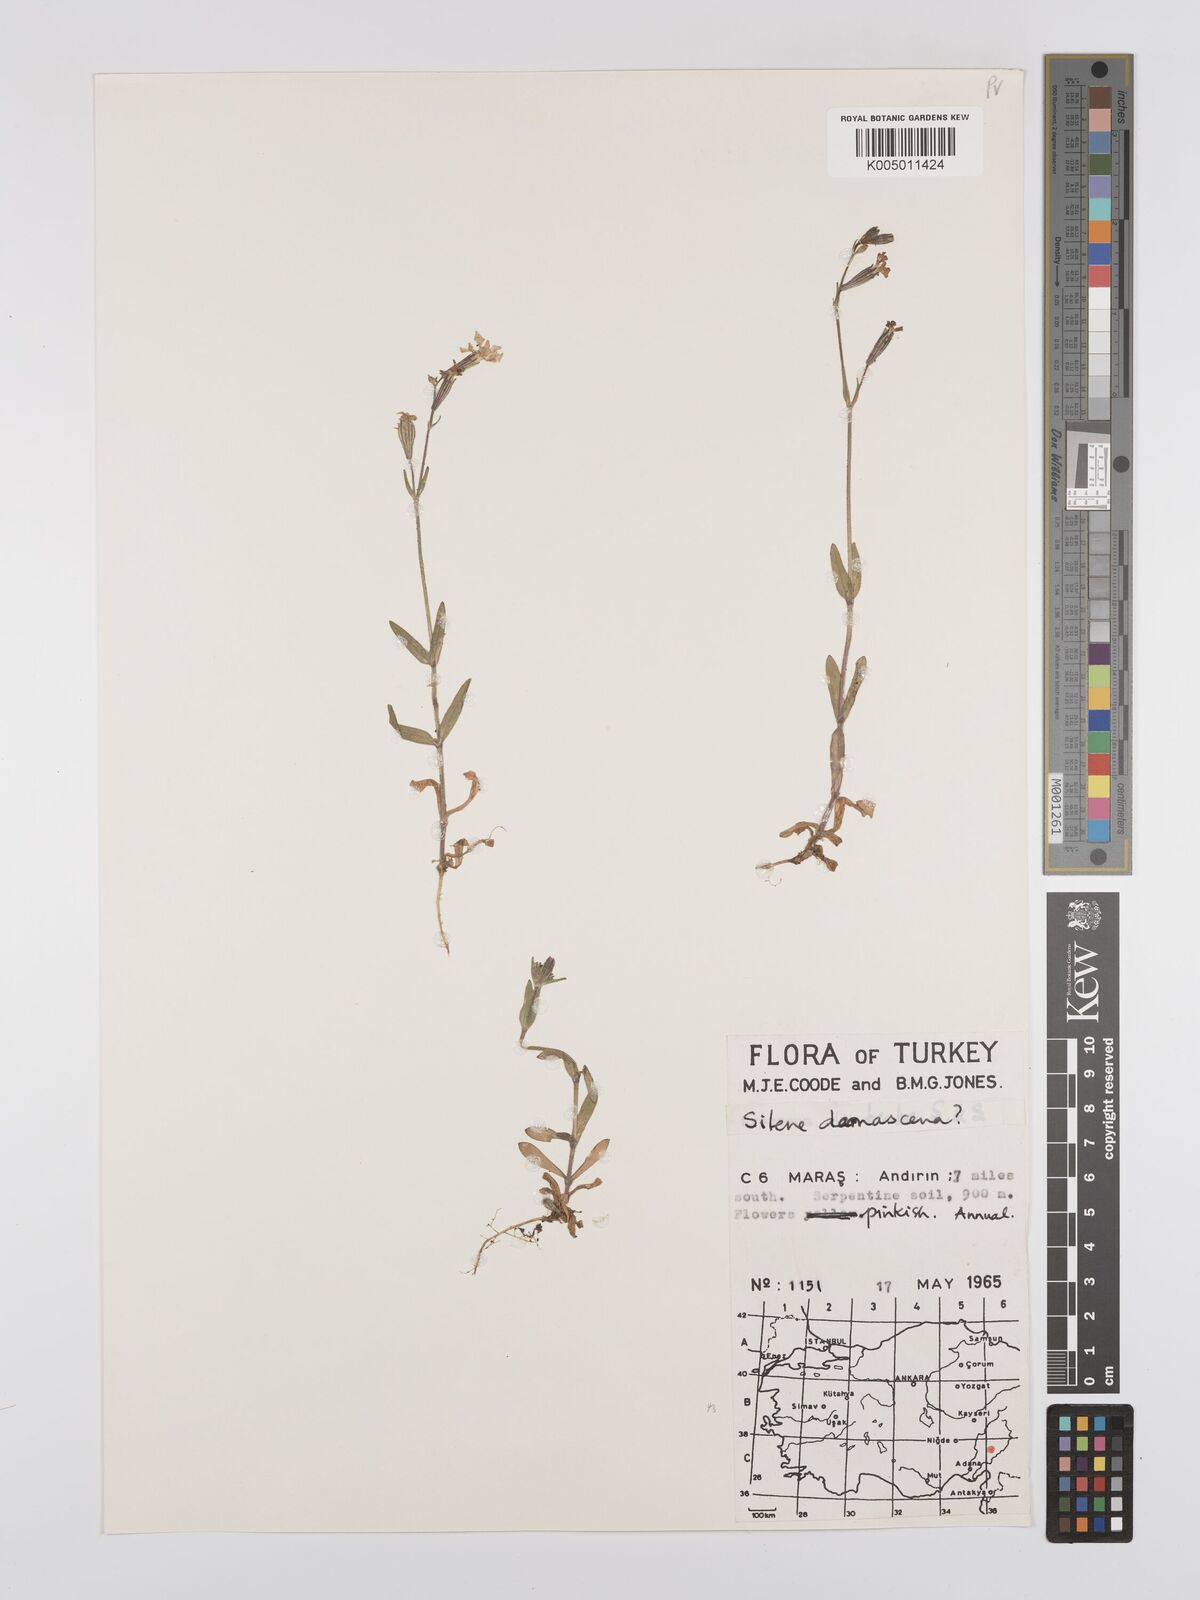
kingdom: Plantae
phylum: Tracheophyta
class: Magnoliopsida
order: Caryophyllales
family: Caryophyllaceae
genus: Silene
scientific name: Silene damascena
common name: Damascus catchfly
